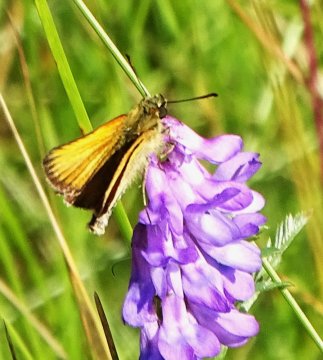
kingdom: Animalia
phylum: Arthropoda
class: Insecta
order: Lepidoptera
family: Hesperiidae
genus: Thymelicus
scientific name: Thymelicus lineola
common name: European Skipper
